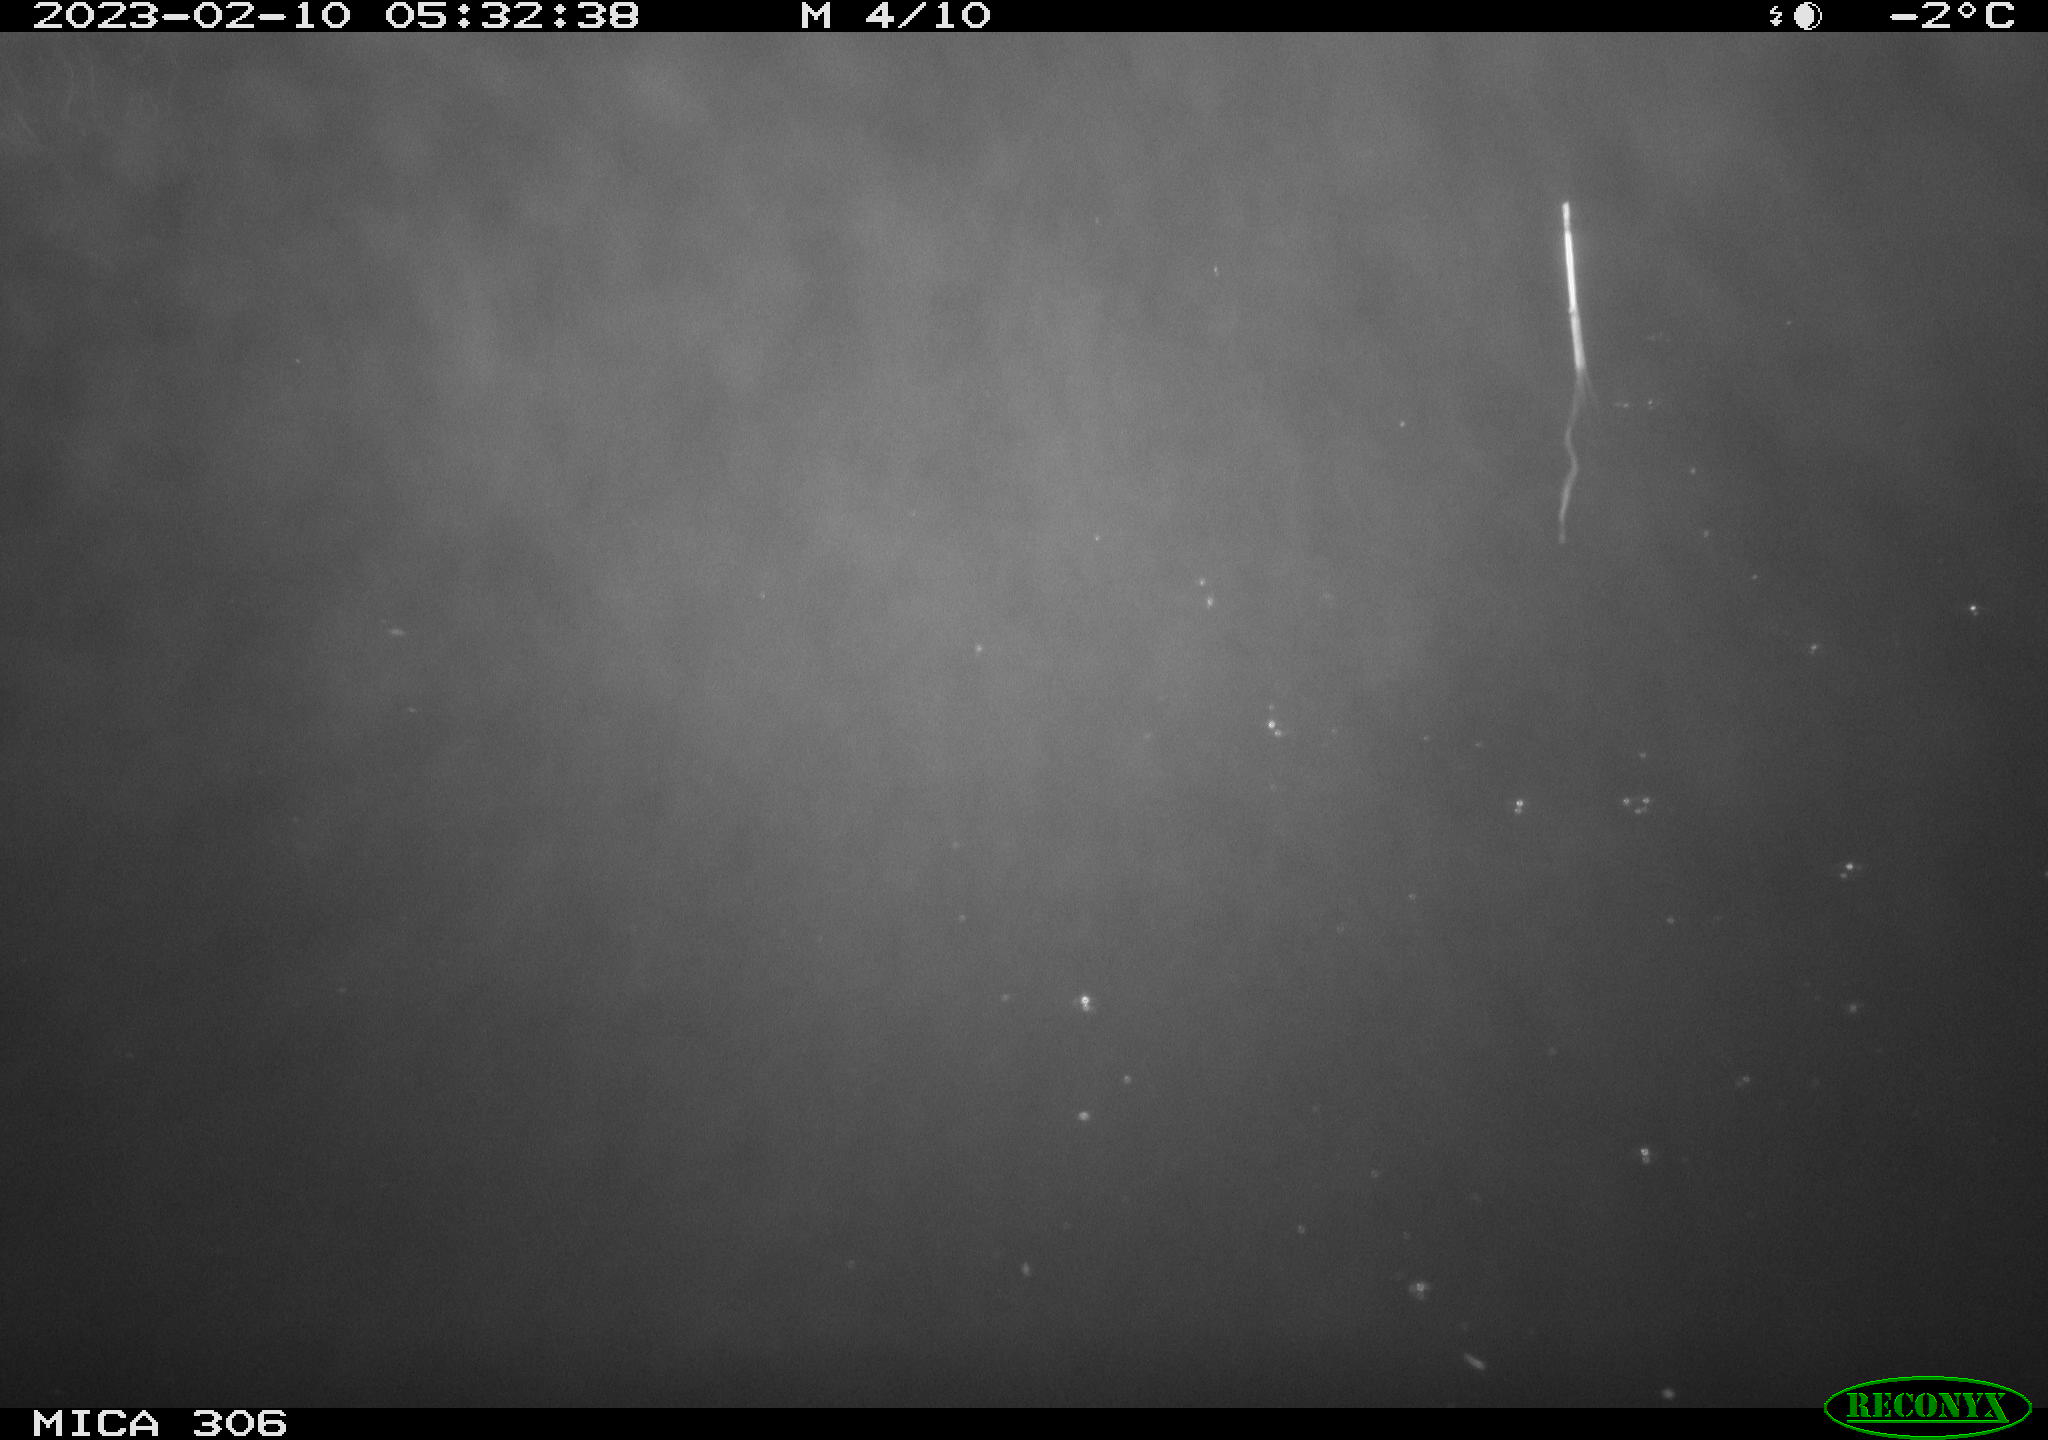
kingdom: Animalia
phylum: Chordata
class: Mammalia
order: Rodentia
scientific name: Rodentia
